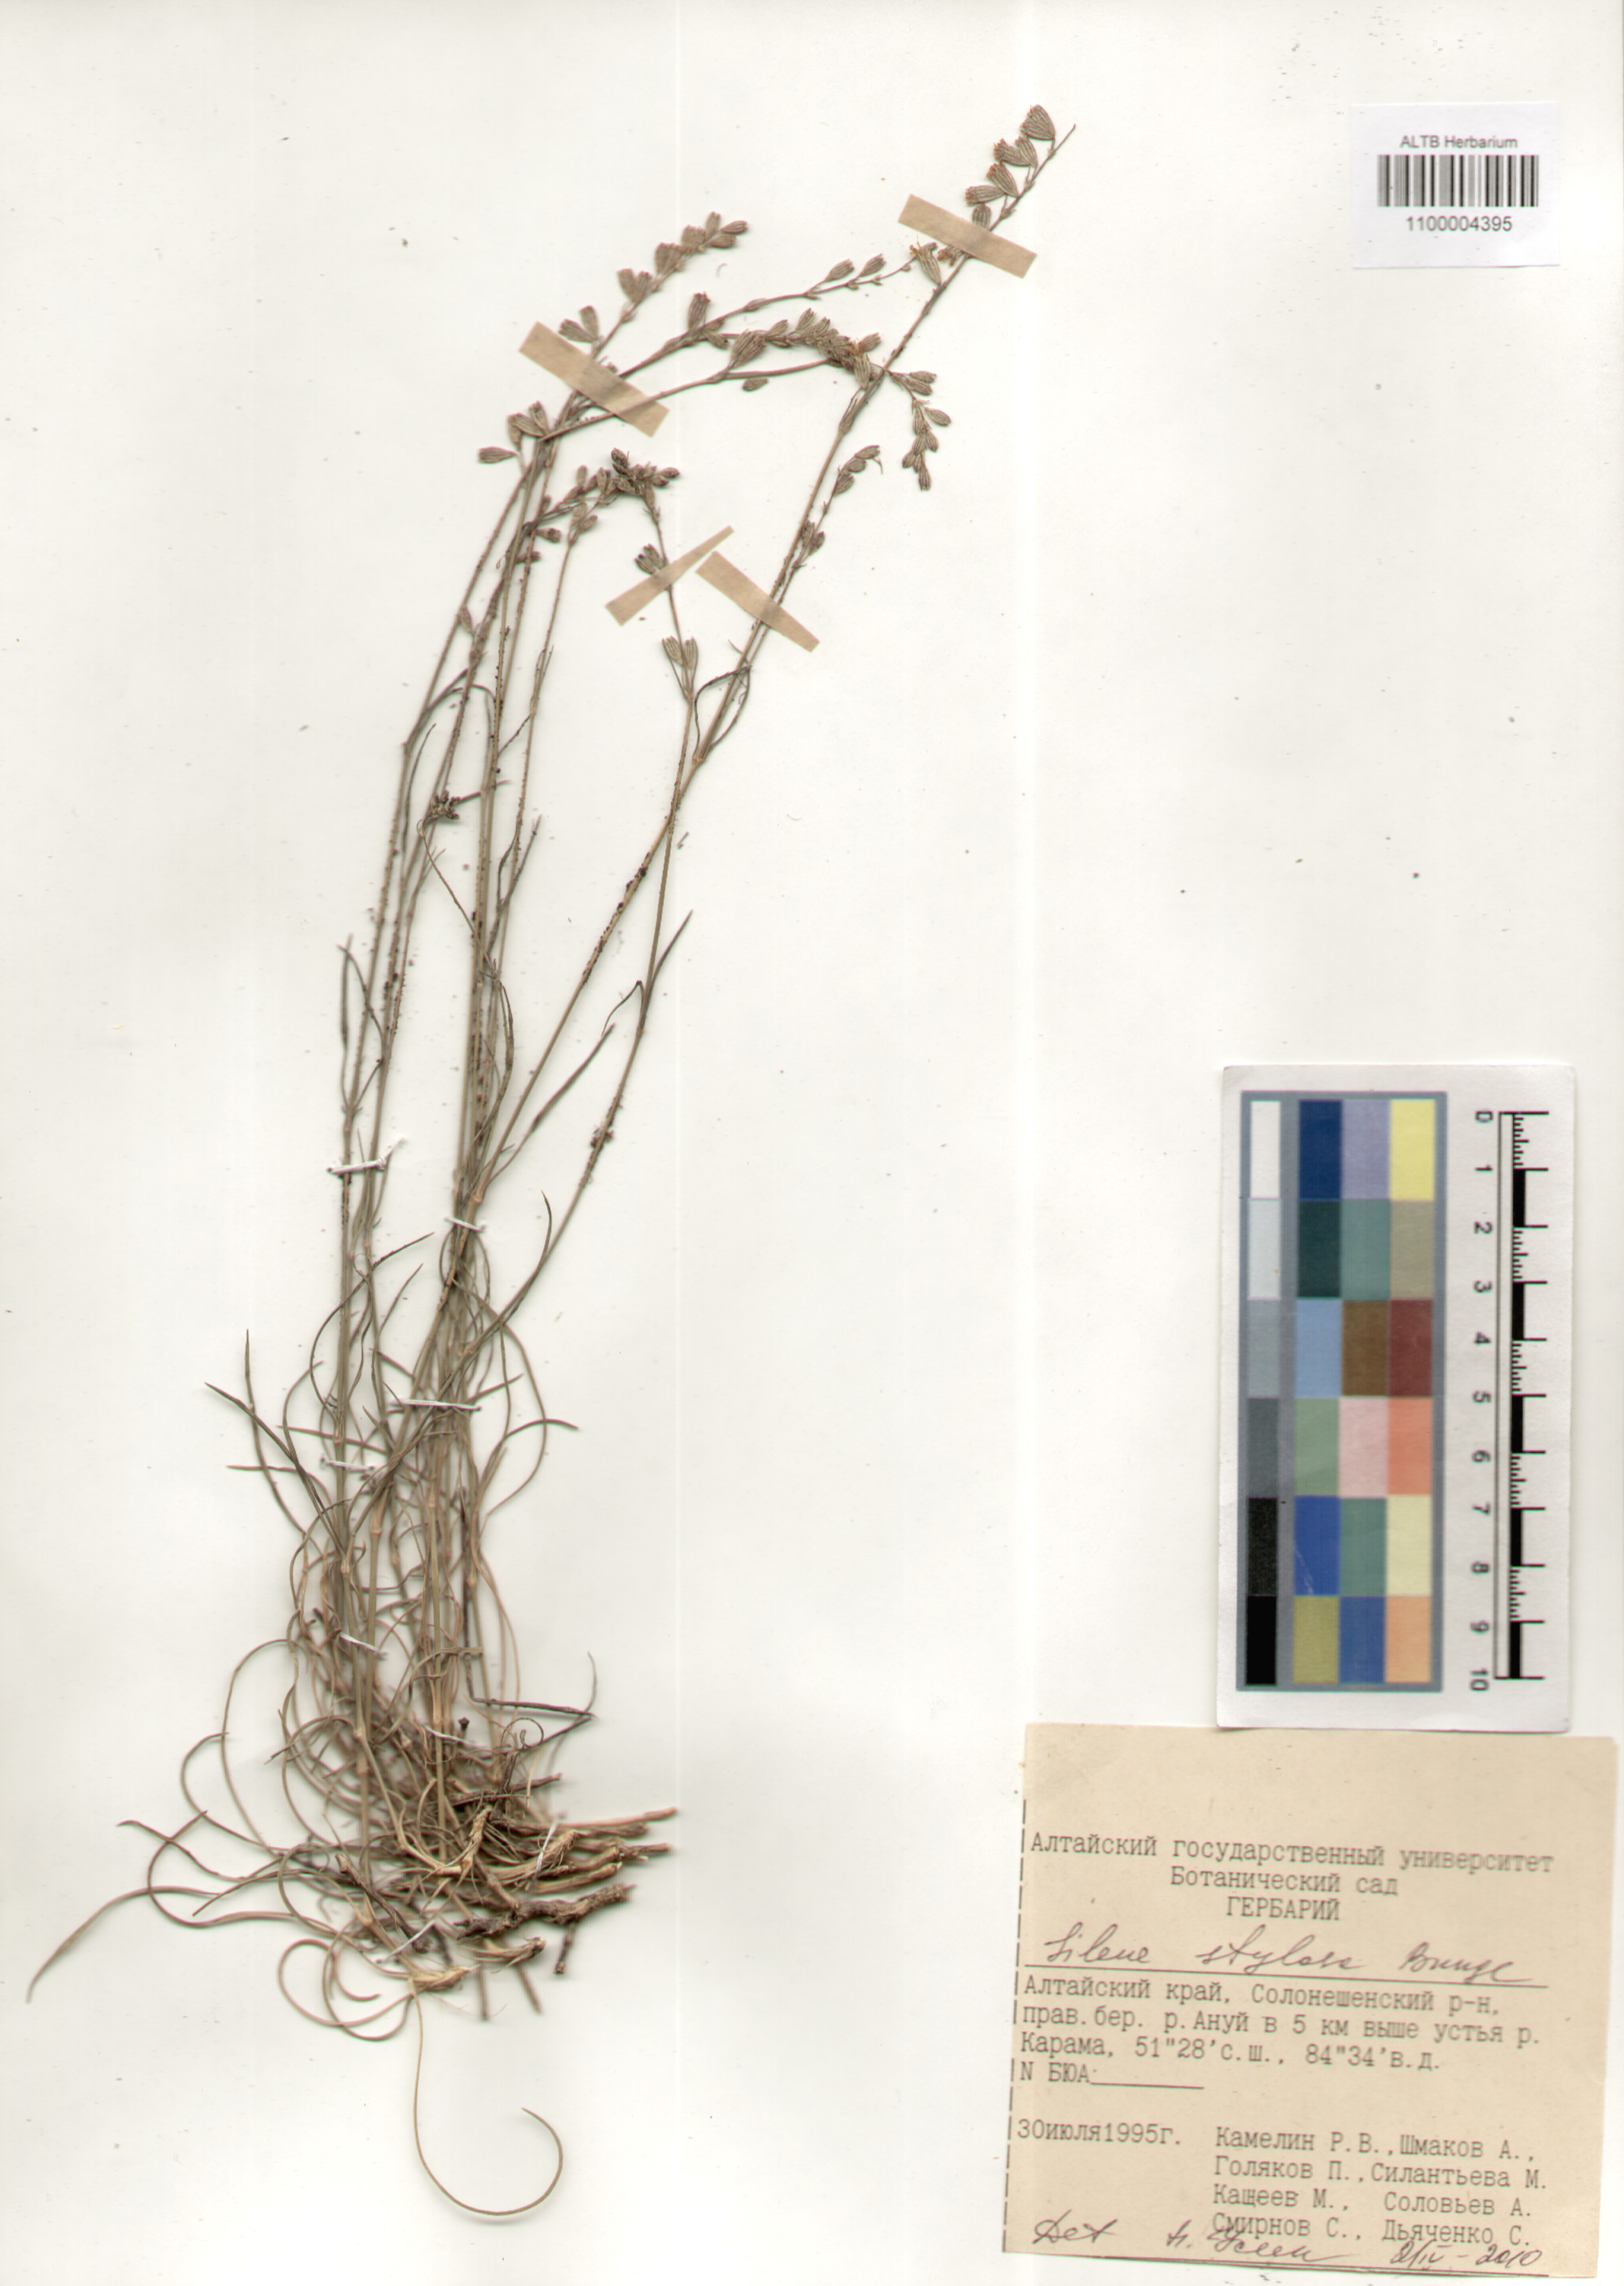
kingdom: Plantae
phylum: Tracheophyta
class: Magnoliopsida
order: Caryophyllales
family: Caryophyllaceae
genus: Silene
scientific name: Silene graminifolia
